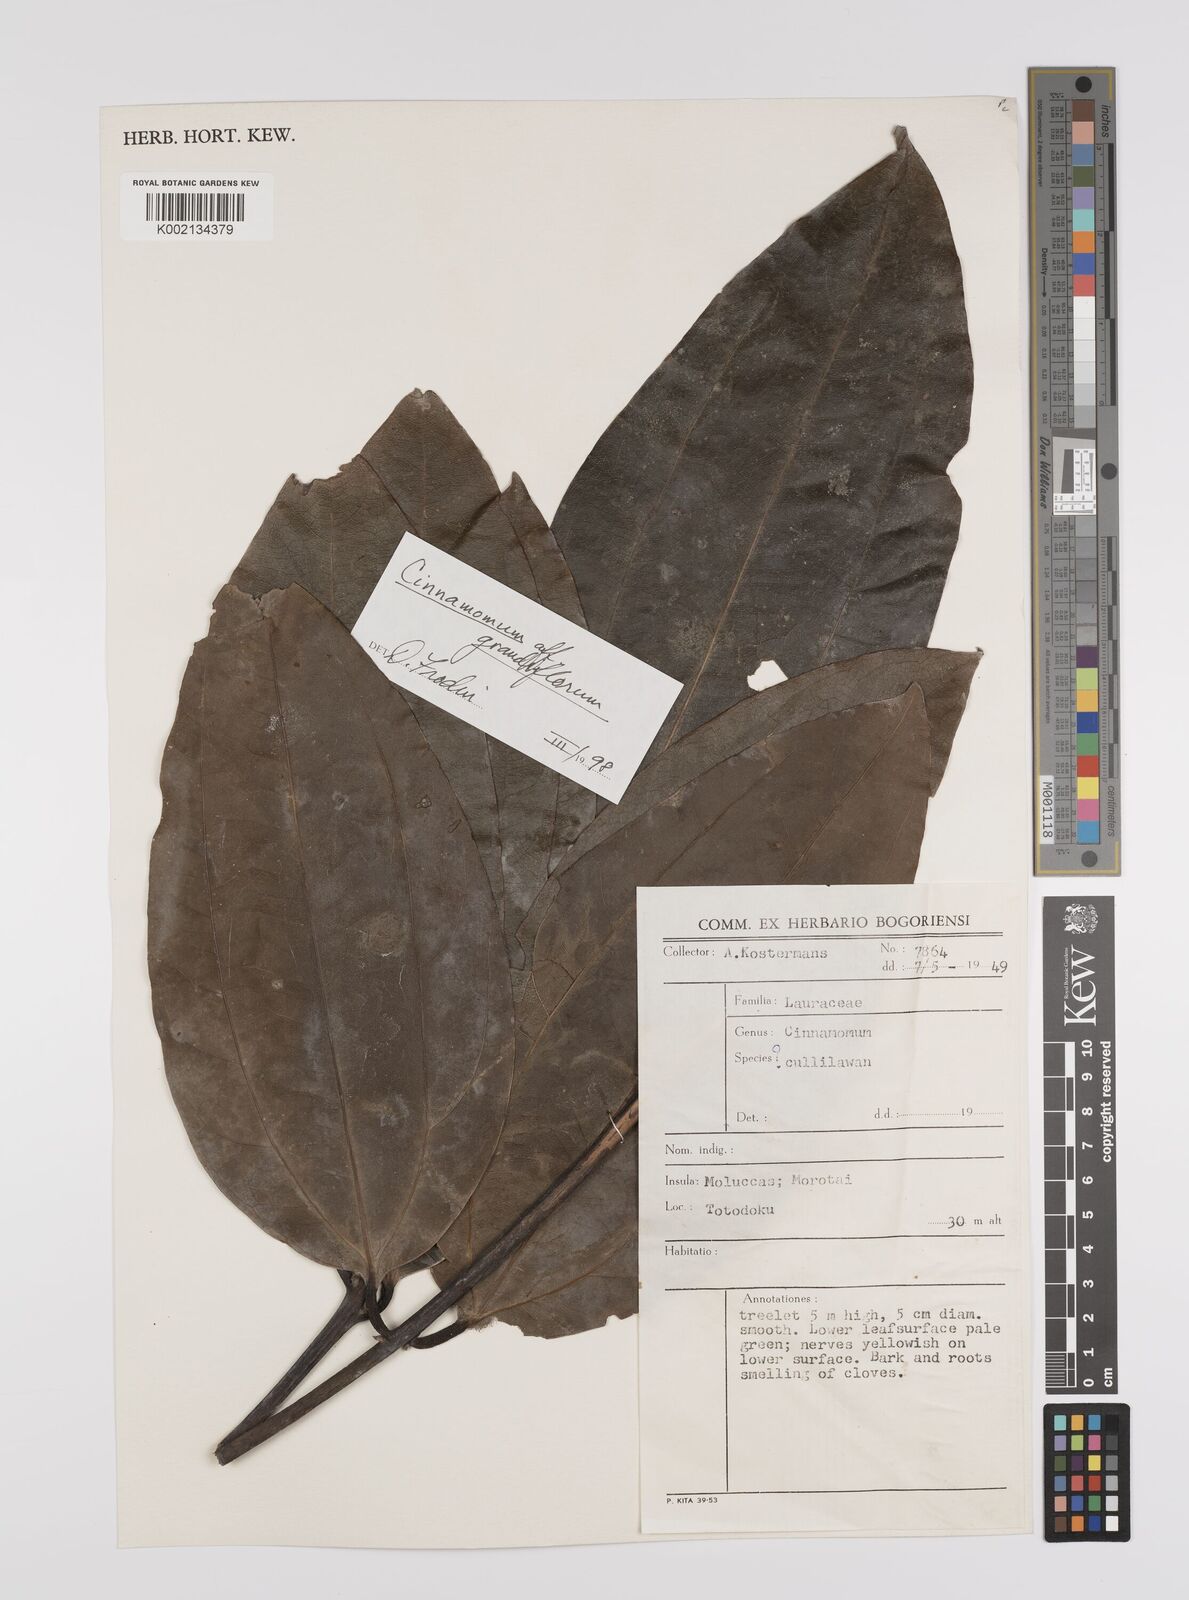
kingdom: Plantae
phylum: Tracheophyta
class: Magnoliopsida
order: Laurales
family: Lauraceae
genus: Cinnamomum
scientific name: Cinnamomum grandiflorum
